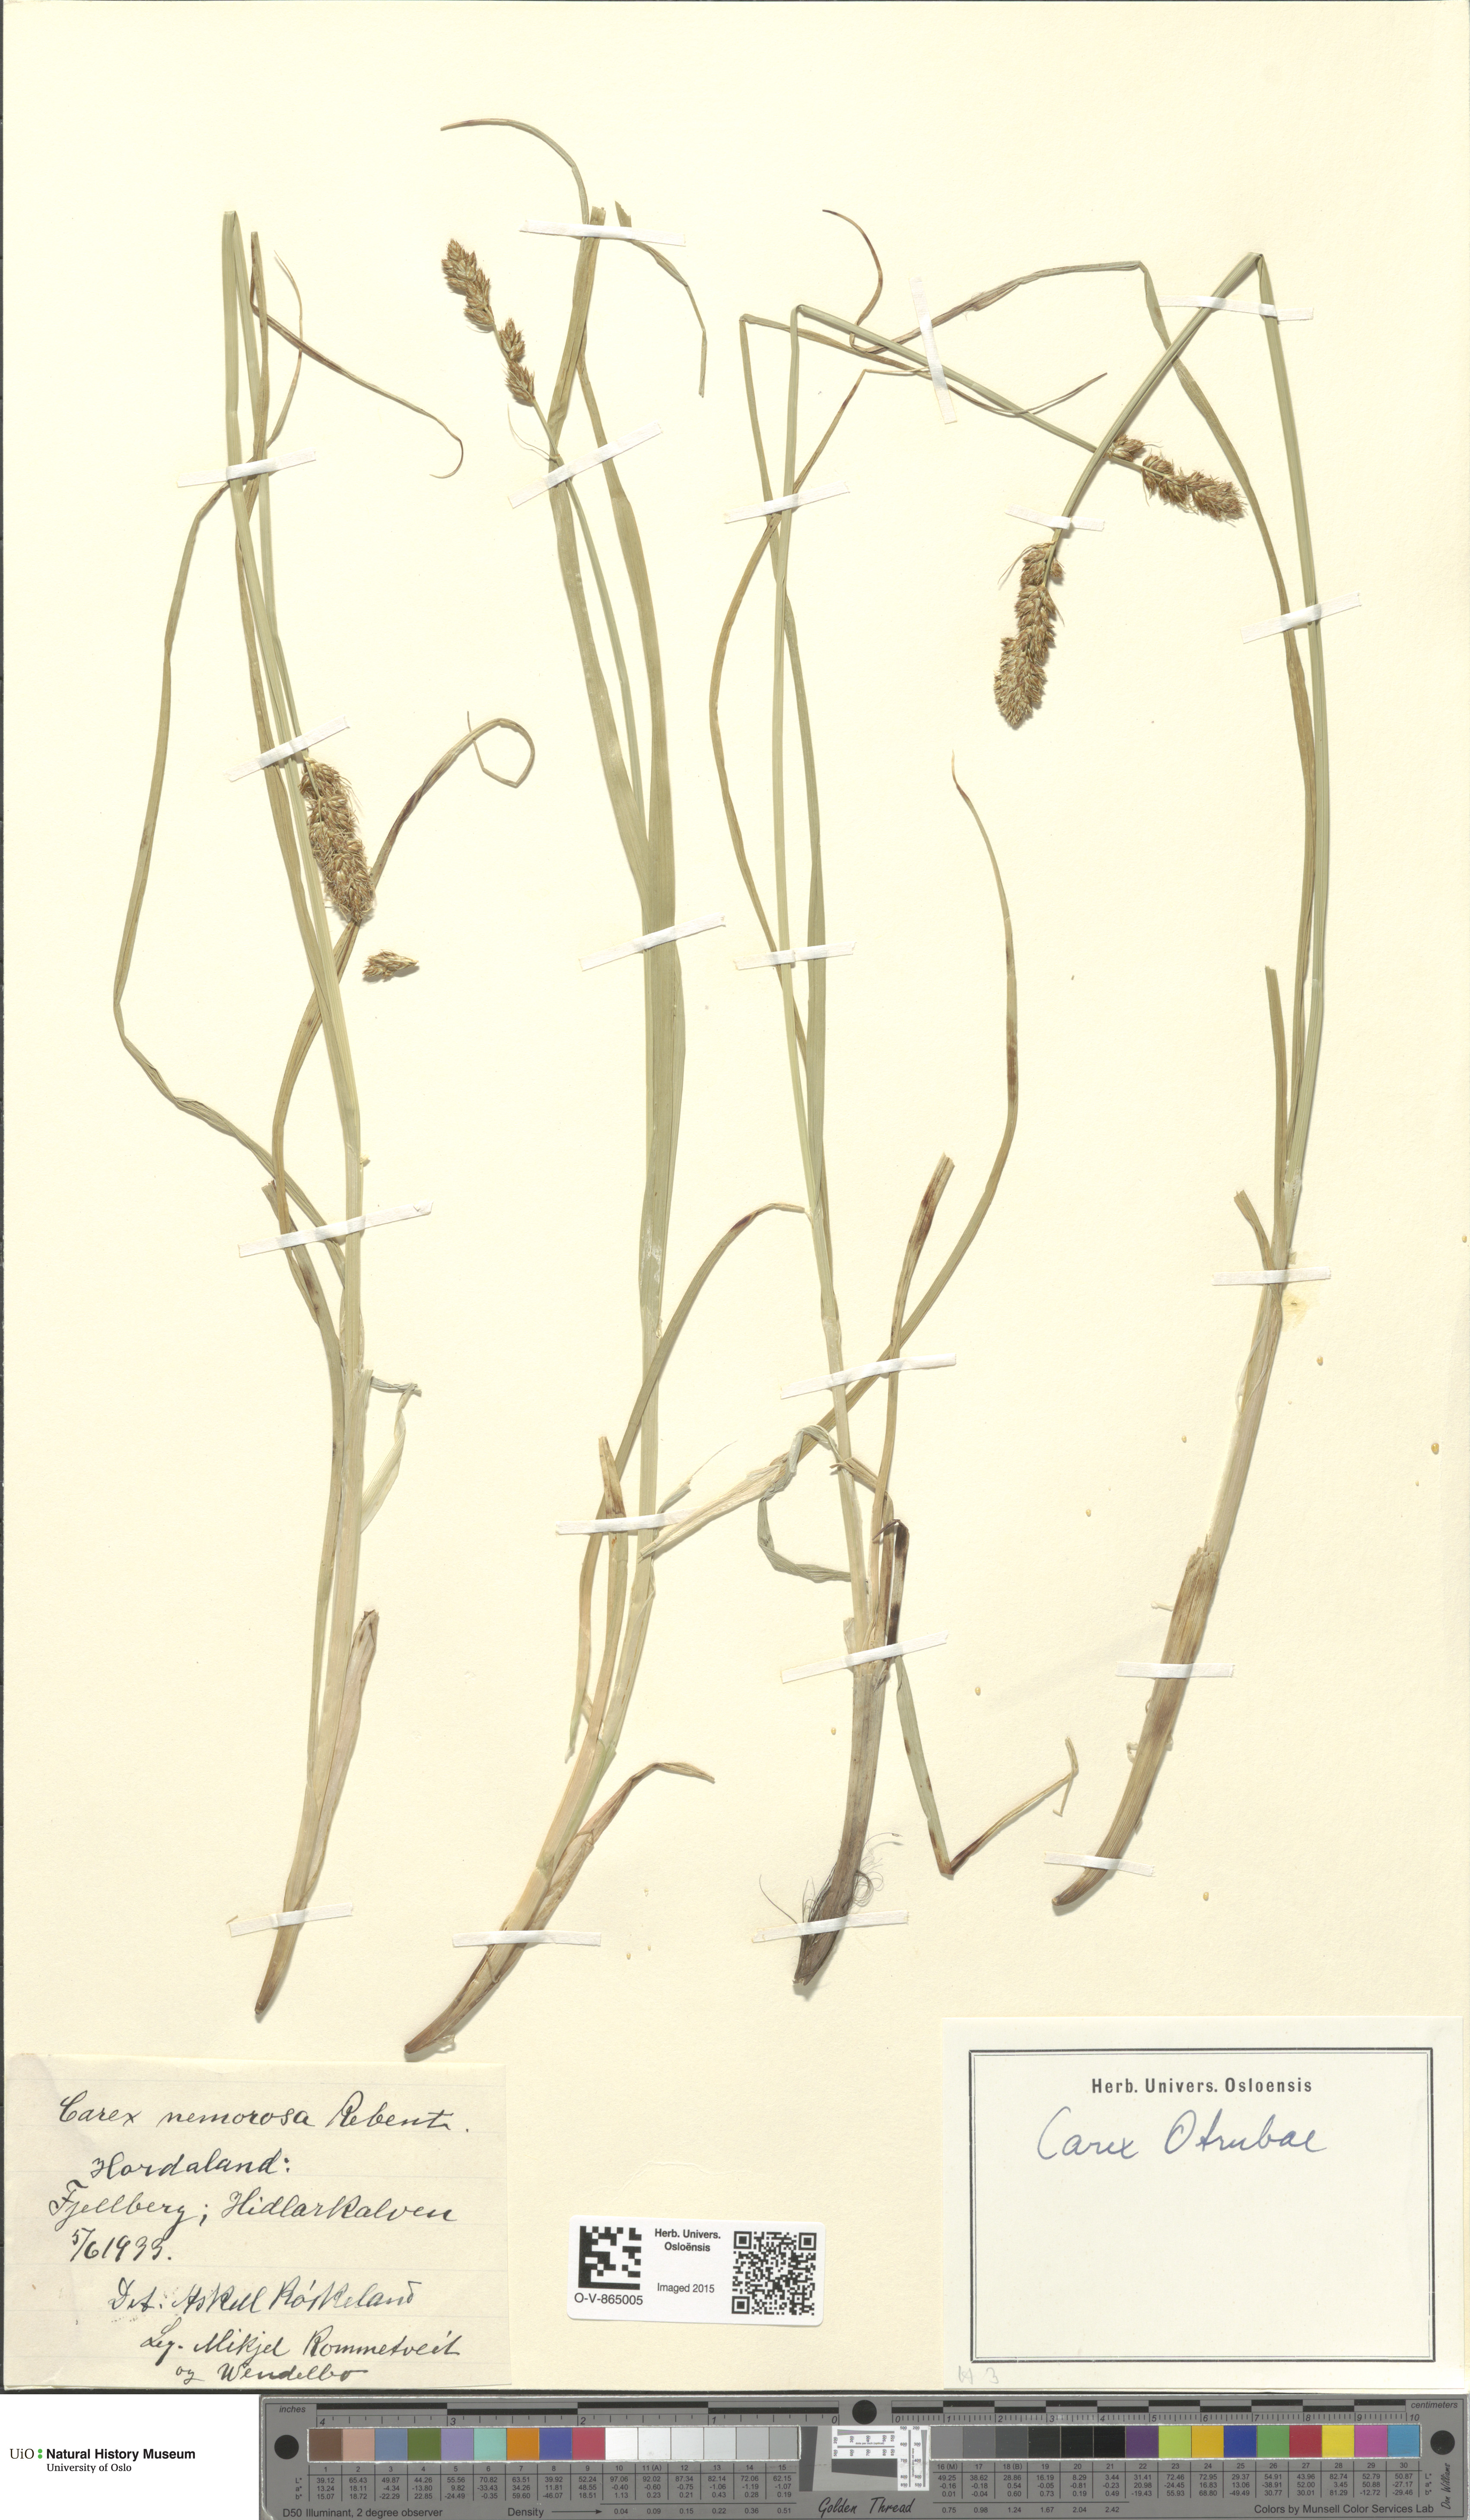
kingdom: Plantae
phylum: Tracheophyta
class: Liliopsida
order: Poales
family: Cyperaceae
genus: Carex
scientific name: Carex otrubae
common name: False fox-sedge
